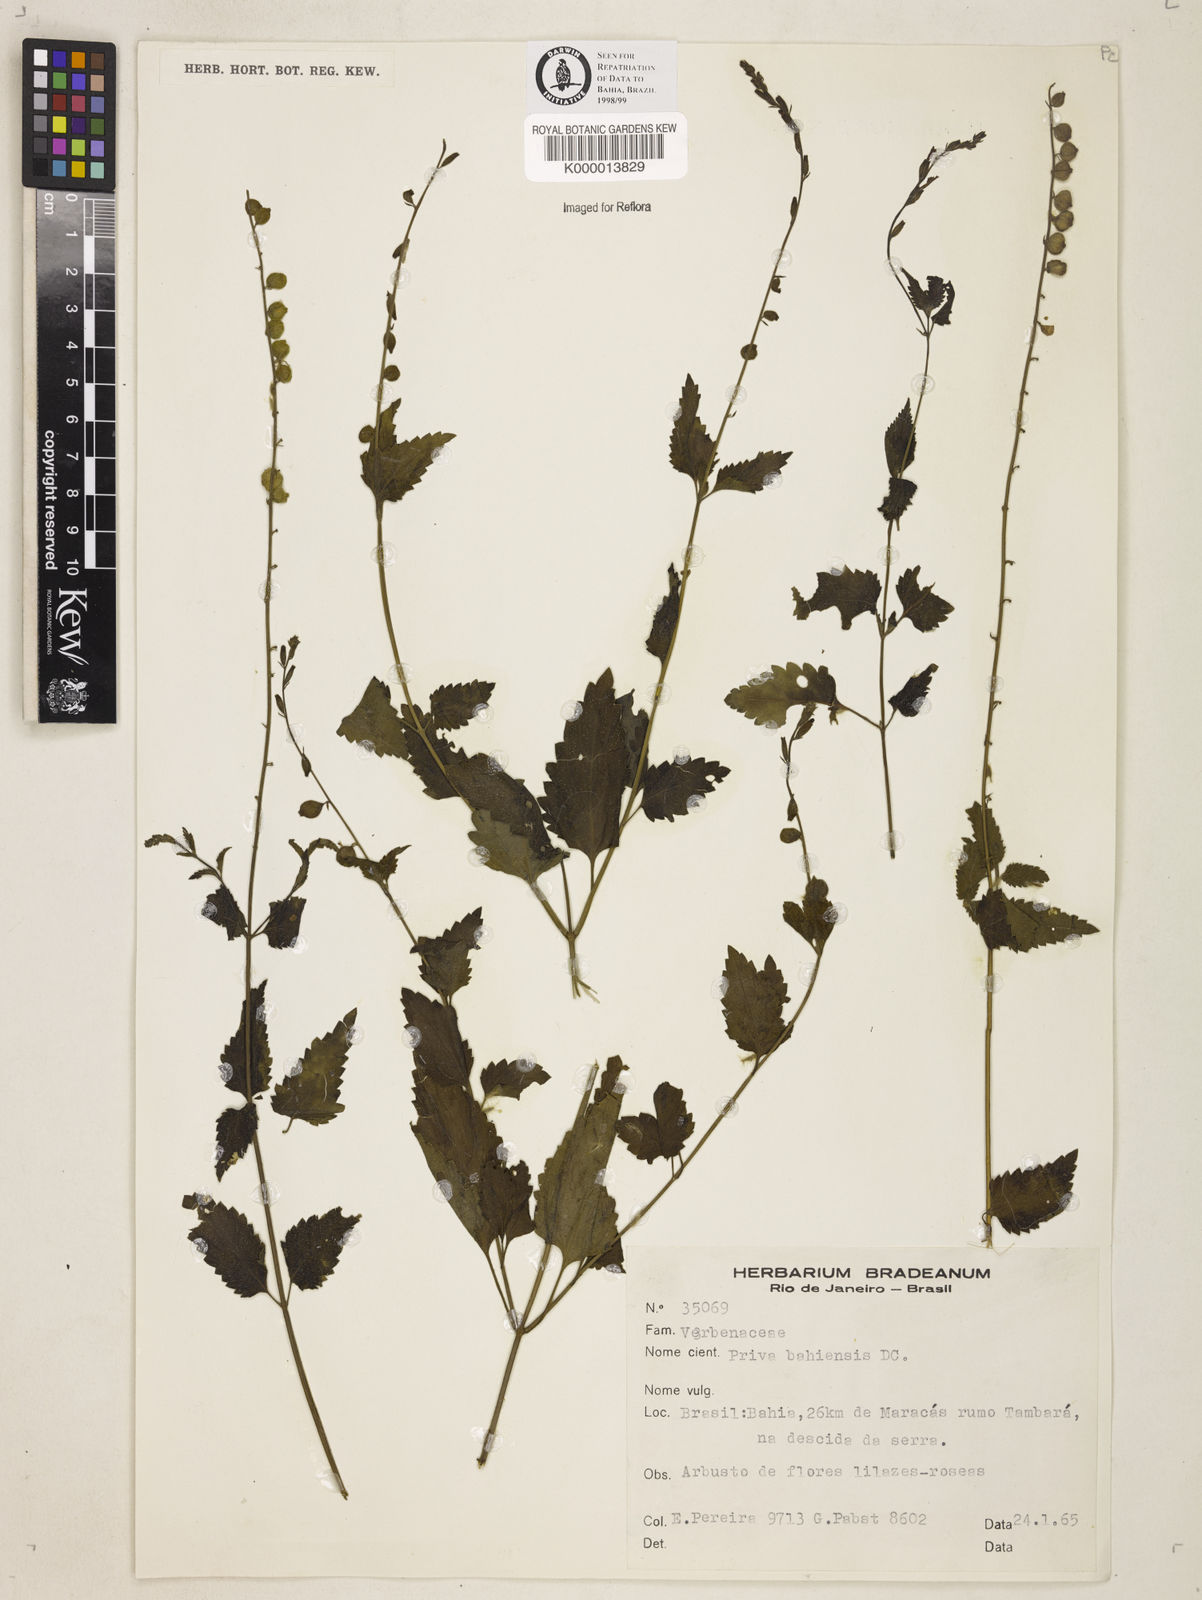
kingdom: Plantae
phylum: Tracheophyta
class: Magnoliopsida
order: Lamiales
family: Verbenaceae
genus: Priva
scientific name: Priva
